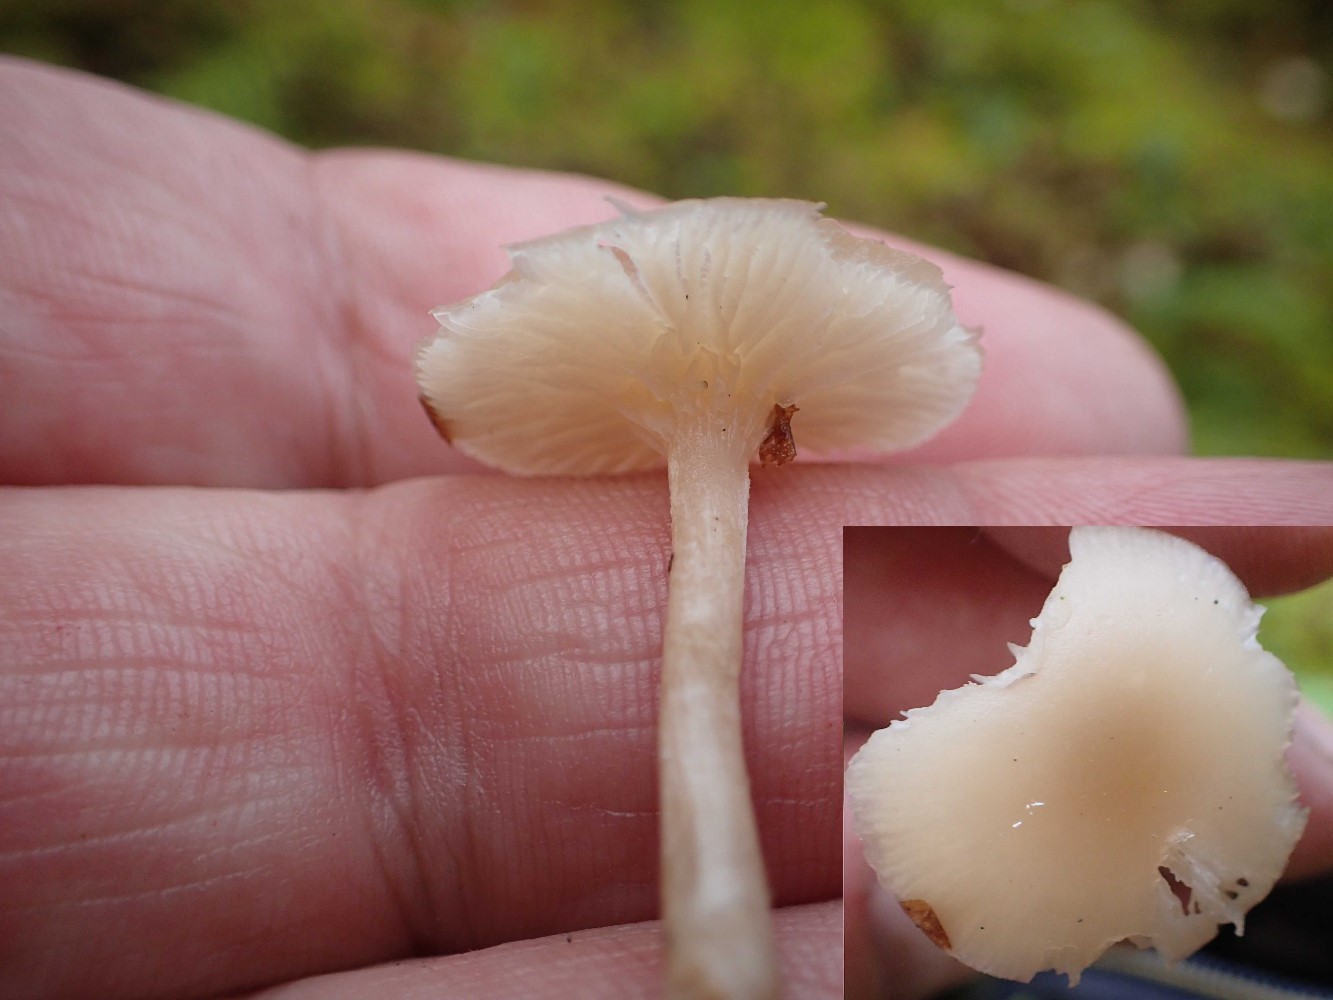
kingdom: Fungi
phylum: Basidiomycota
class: Agaricomycetes
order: Agaricales
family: Tricholomataceae
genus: Clitocybe
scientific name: Clitocybe fragrans
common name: vellugtende tragthat
